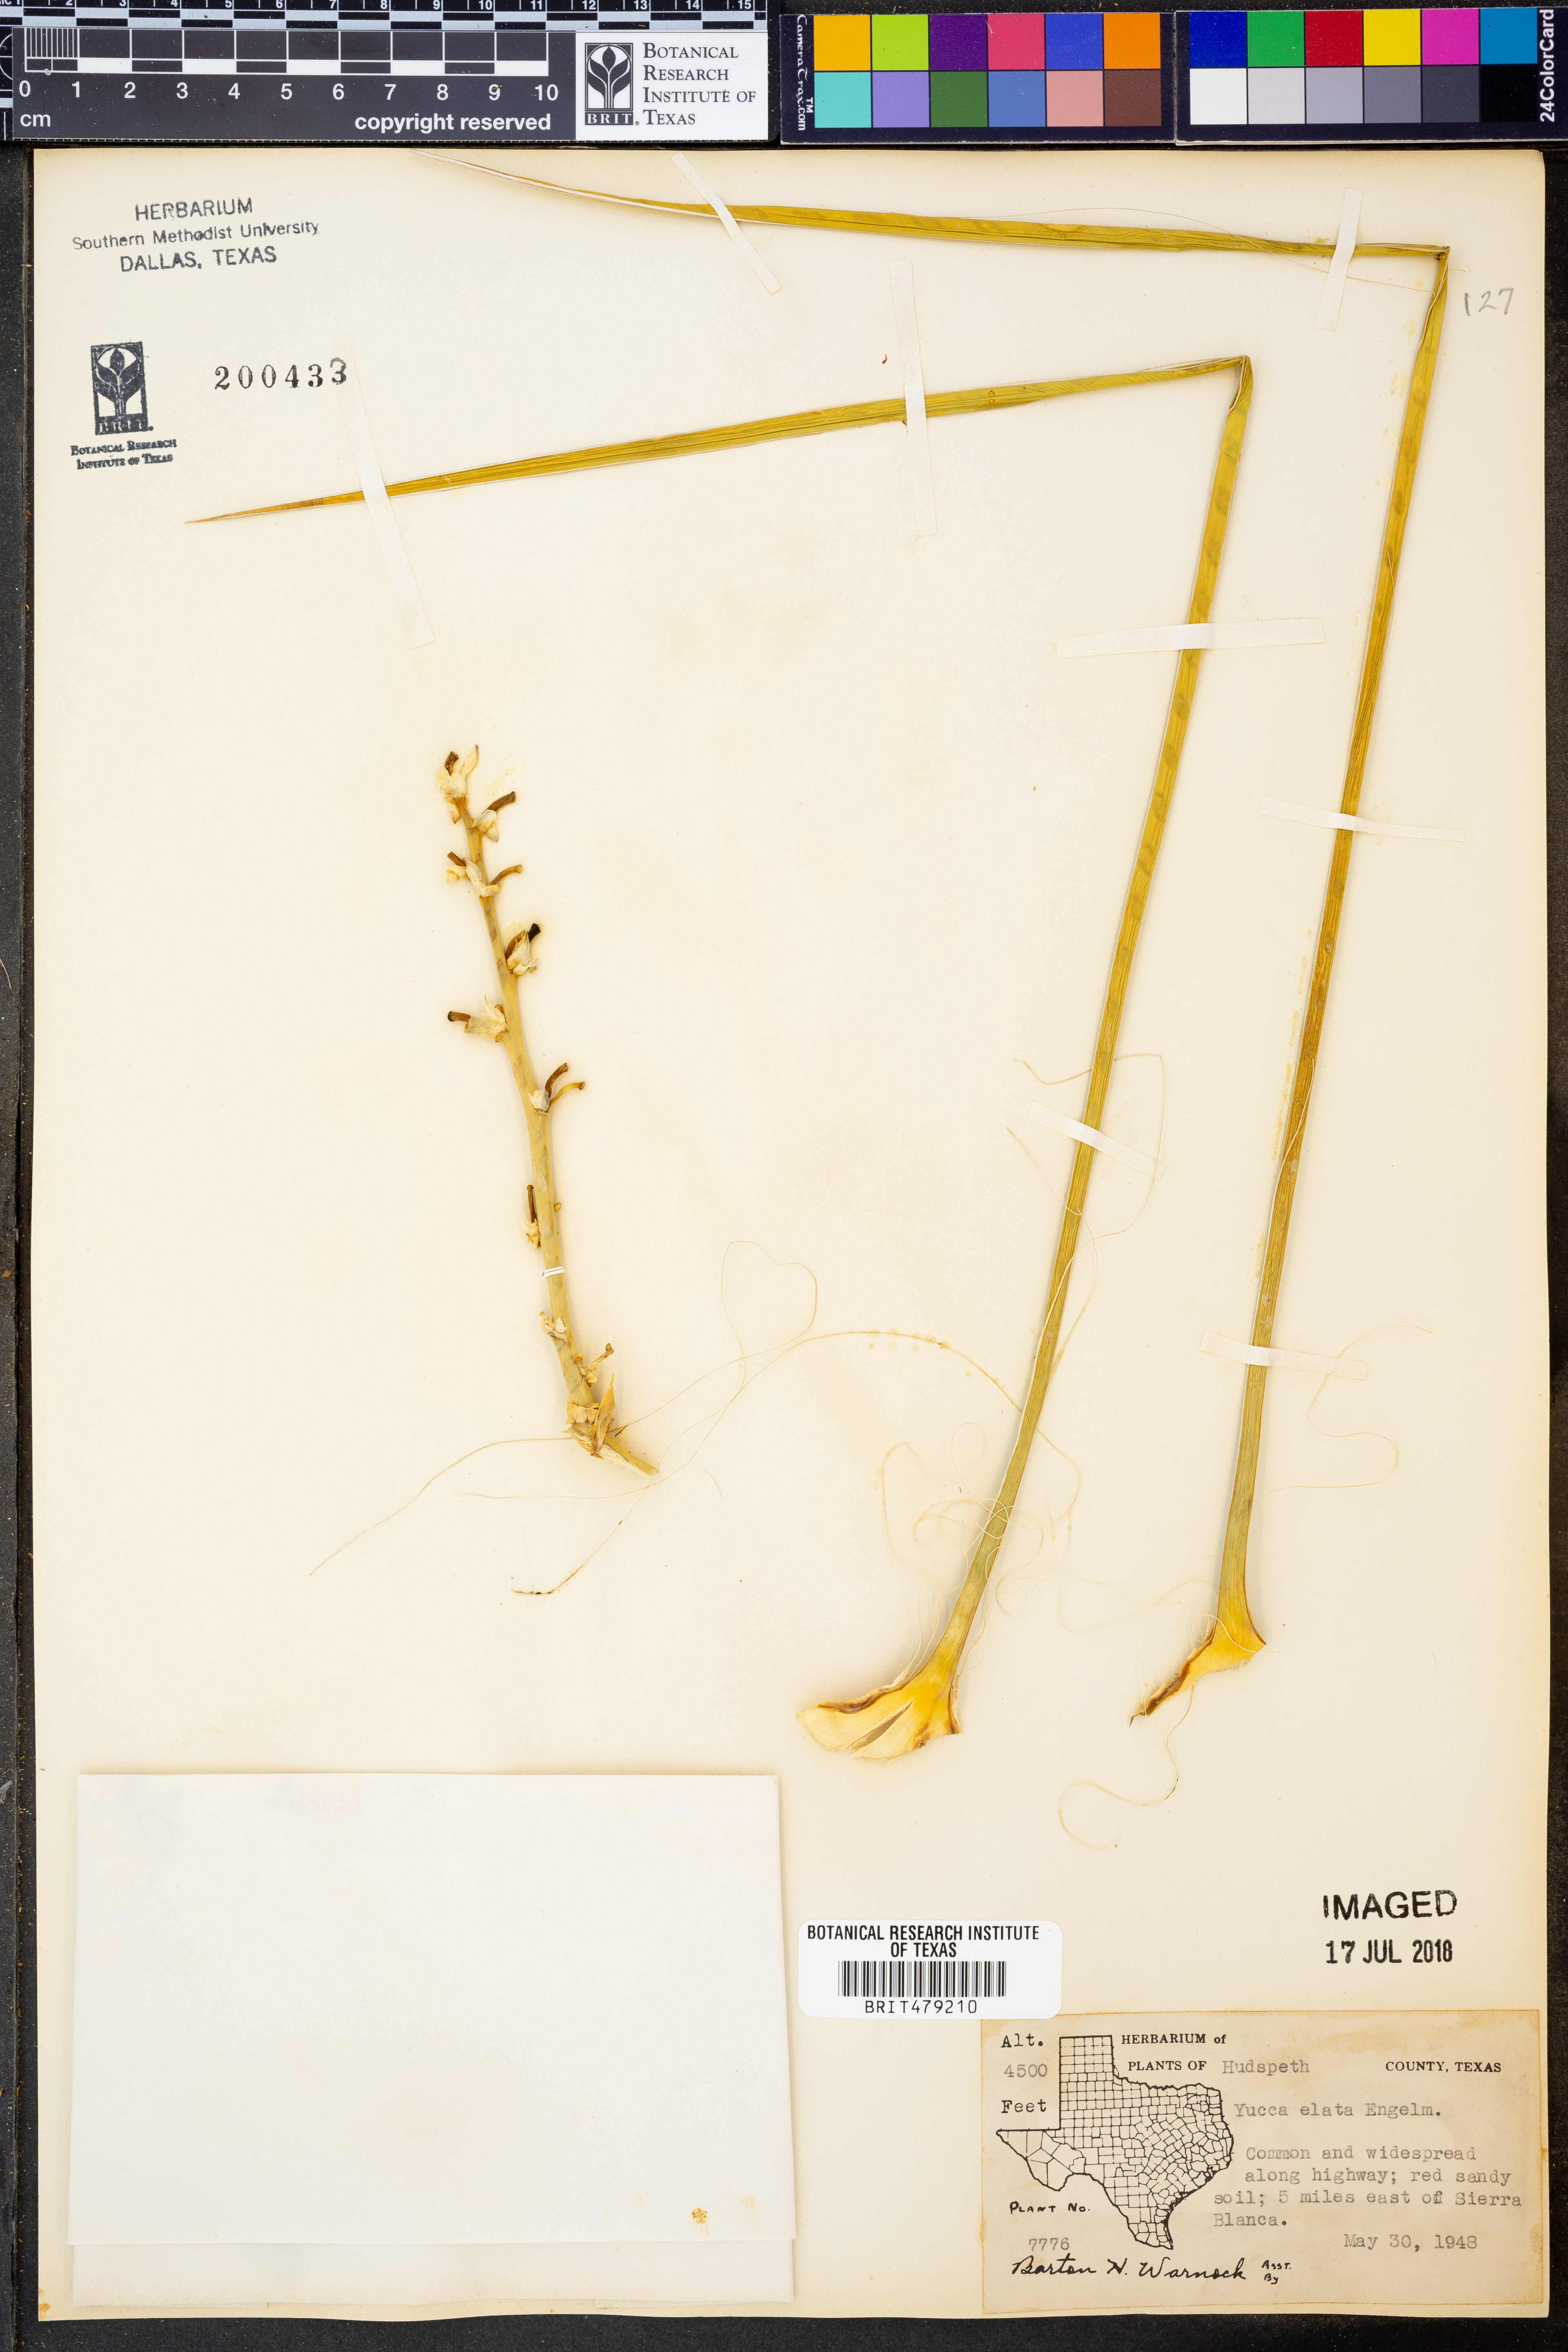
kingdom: Plantae
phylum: Tracheophyta
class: Liliopsida
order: Asparagales
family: Asparagaceae
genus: Yucca
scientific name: Yucca elata
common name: Palmella
